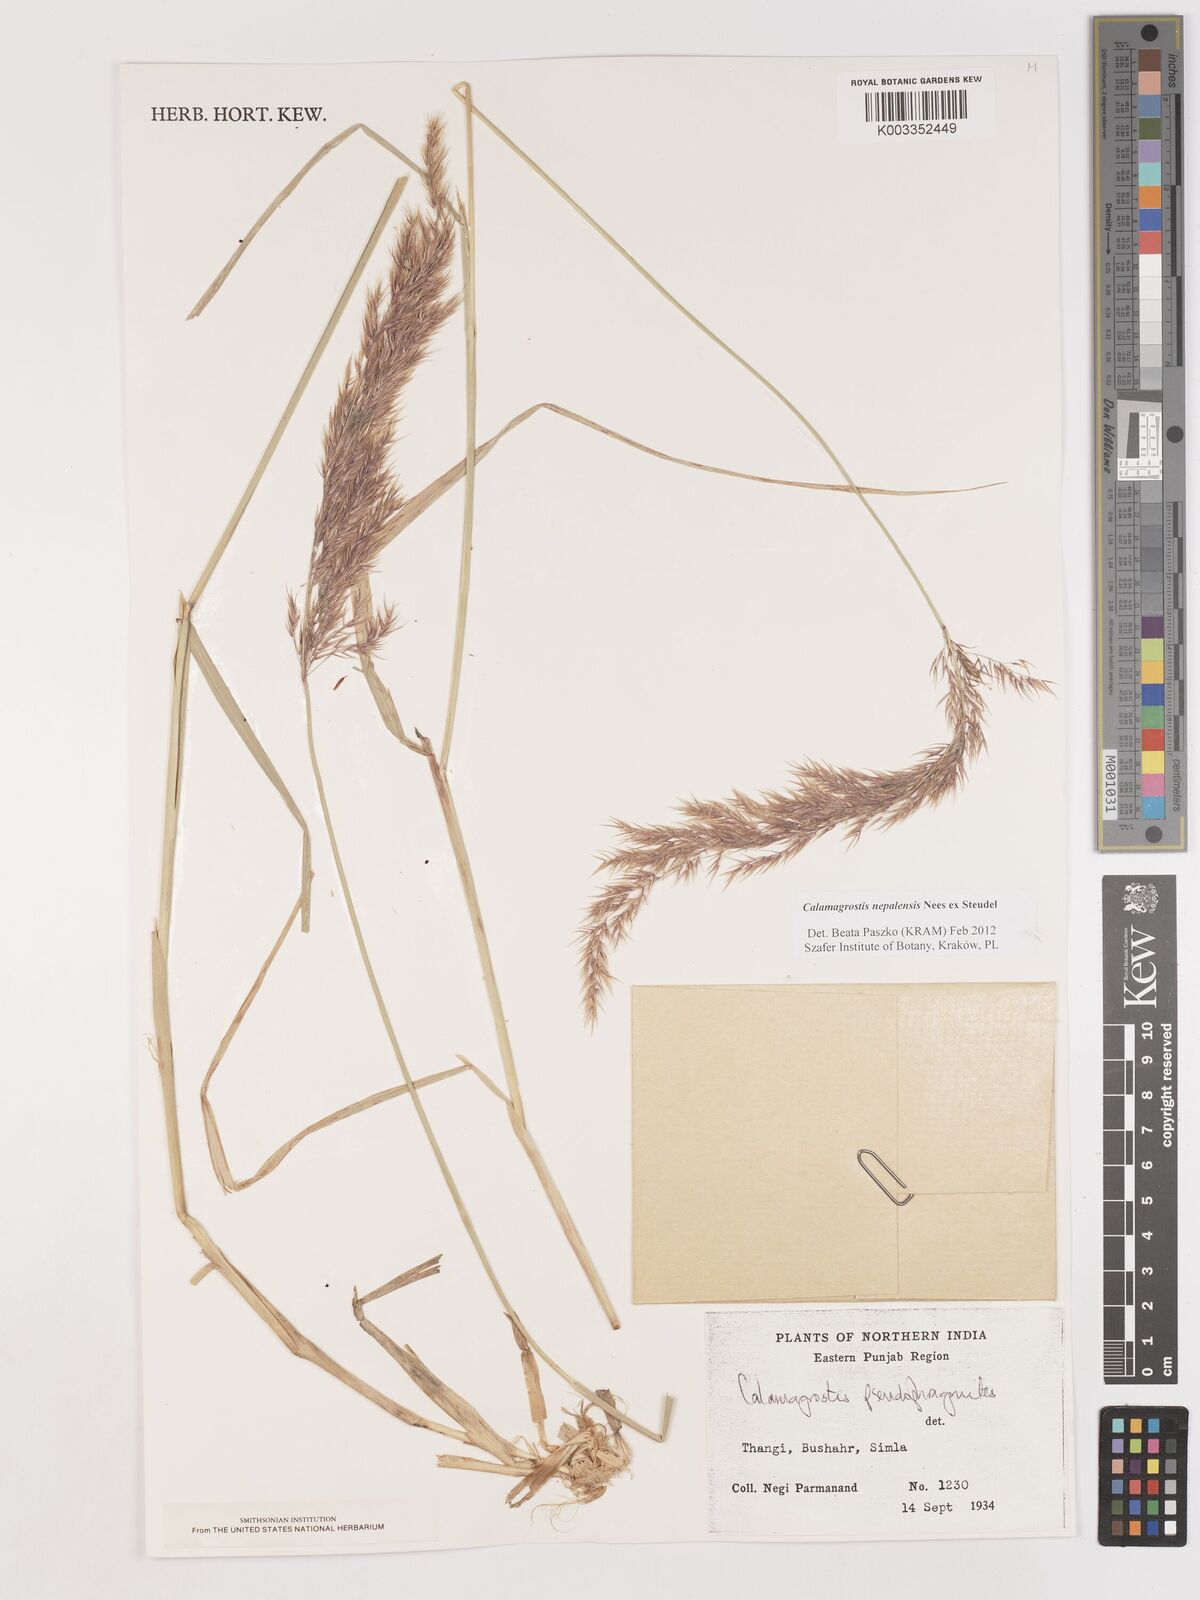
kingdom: Plantae
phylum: Tracheophyta
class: Liliopsida
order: Poales
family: Poaceae
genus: Calamagrostis
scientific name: Calamagrostis pseudophragmites
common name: Coastal small-reed
